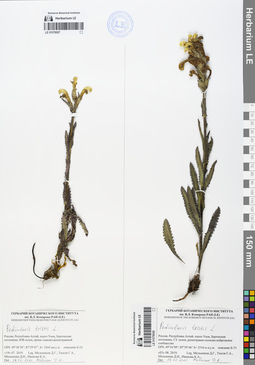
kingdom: Plantae
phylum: Tracheophyta
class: Magnoliopsida
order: Lamiales
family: Orobanchaceae
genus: Pedicularis
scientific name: Pedicularis tristis
